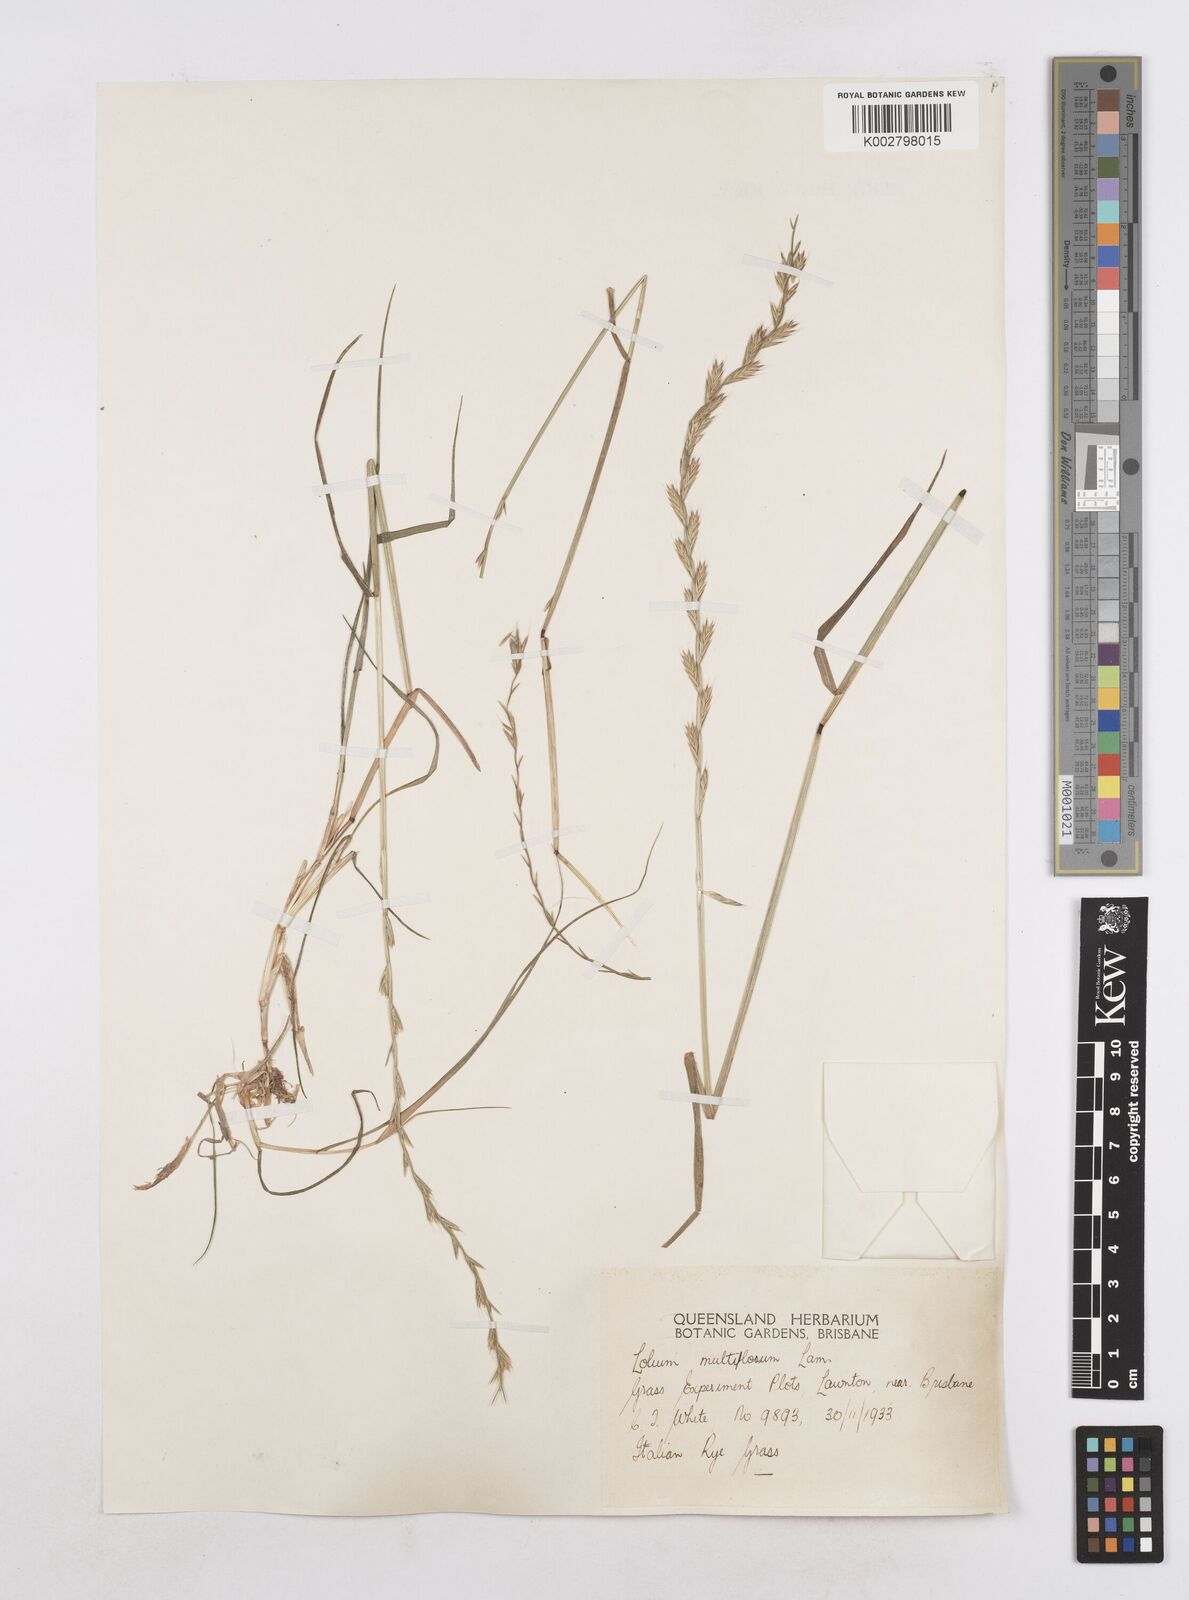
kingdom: Plantae
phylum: Tracheophyta
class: Liliopsida
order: Poales
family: Poaceae
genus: Lolium
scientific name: Lolium multiflorum
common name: Annual ryegrass
